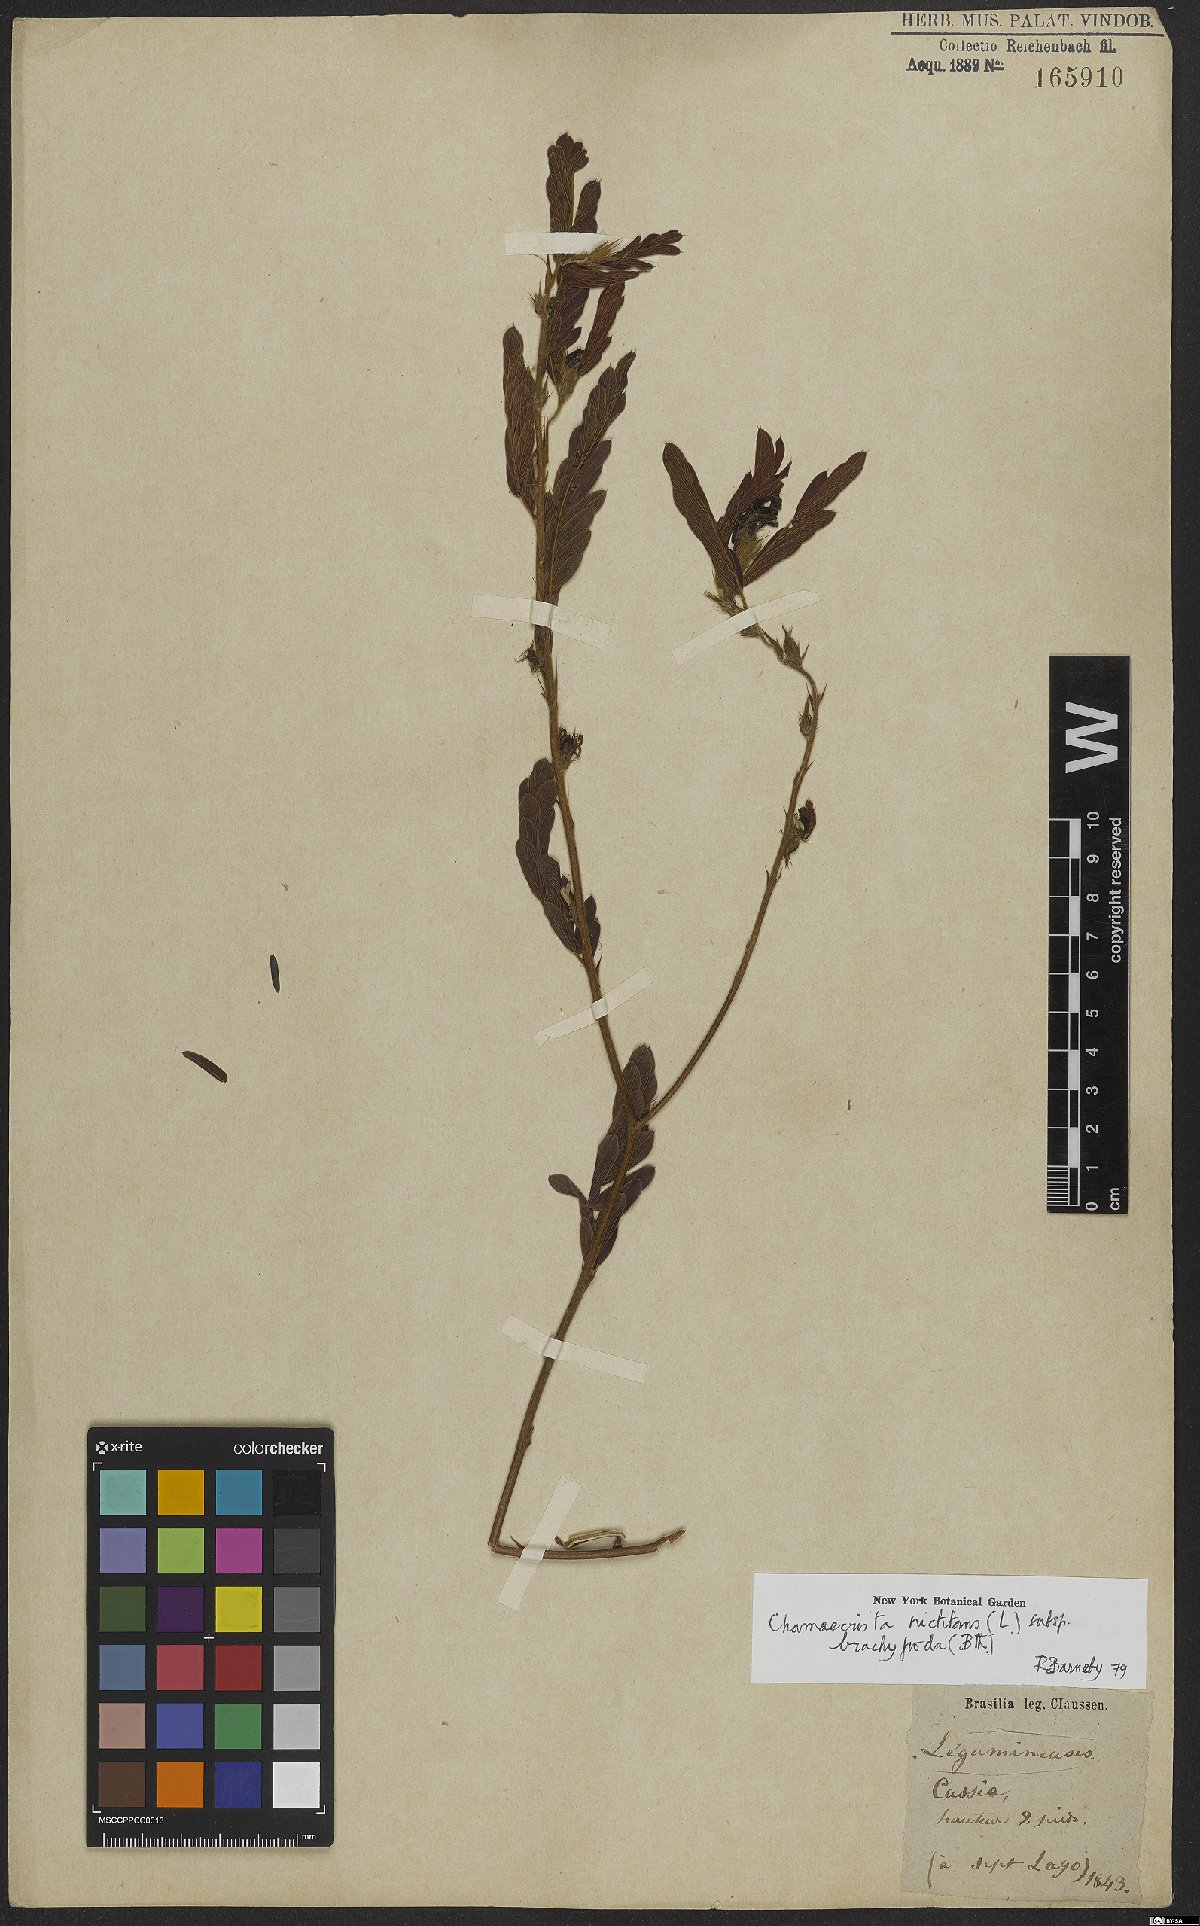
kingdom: Plantae
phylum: Tracheophyta
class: Magnoliopsida
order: Fabales
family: Fabaceae
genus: Chamaecrista
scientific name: Chamaecrista nictitans
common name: Sensitive cassia
